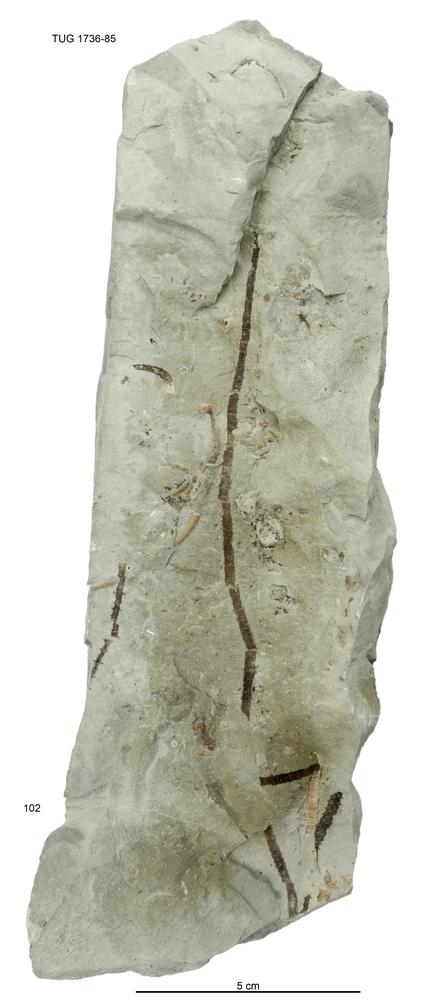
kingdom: Animalia
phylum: Echinodermata
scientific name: Echinodermata
